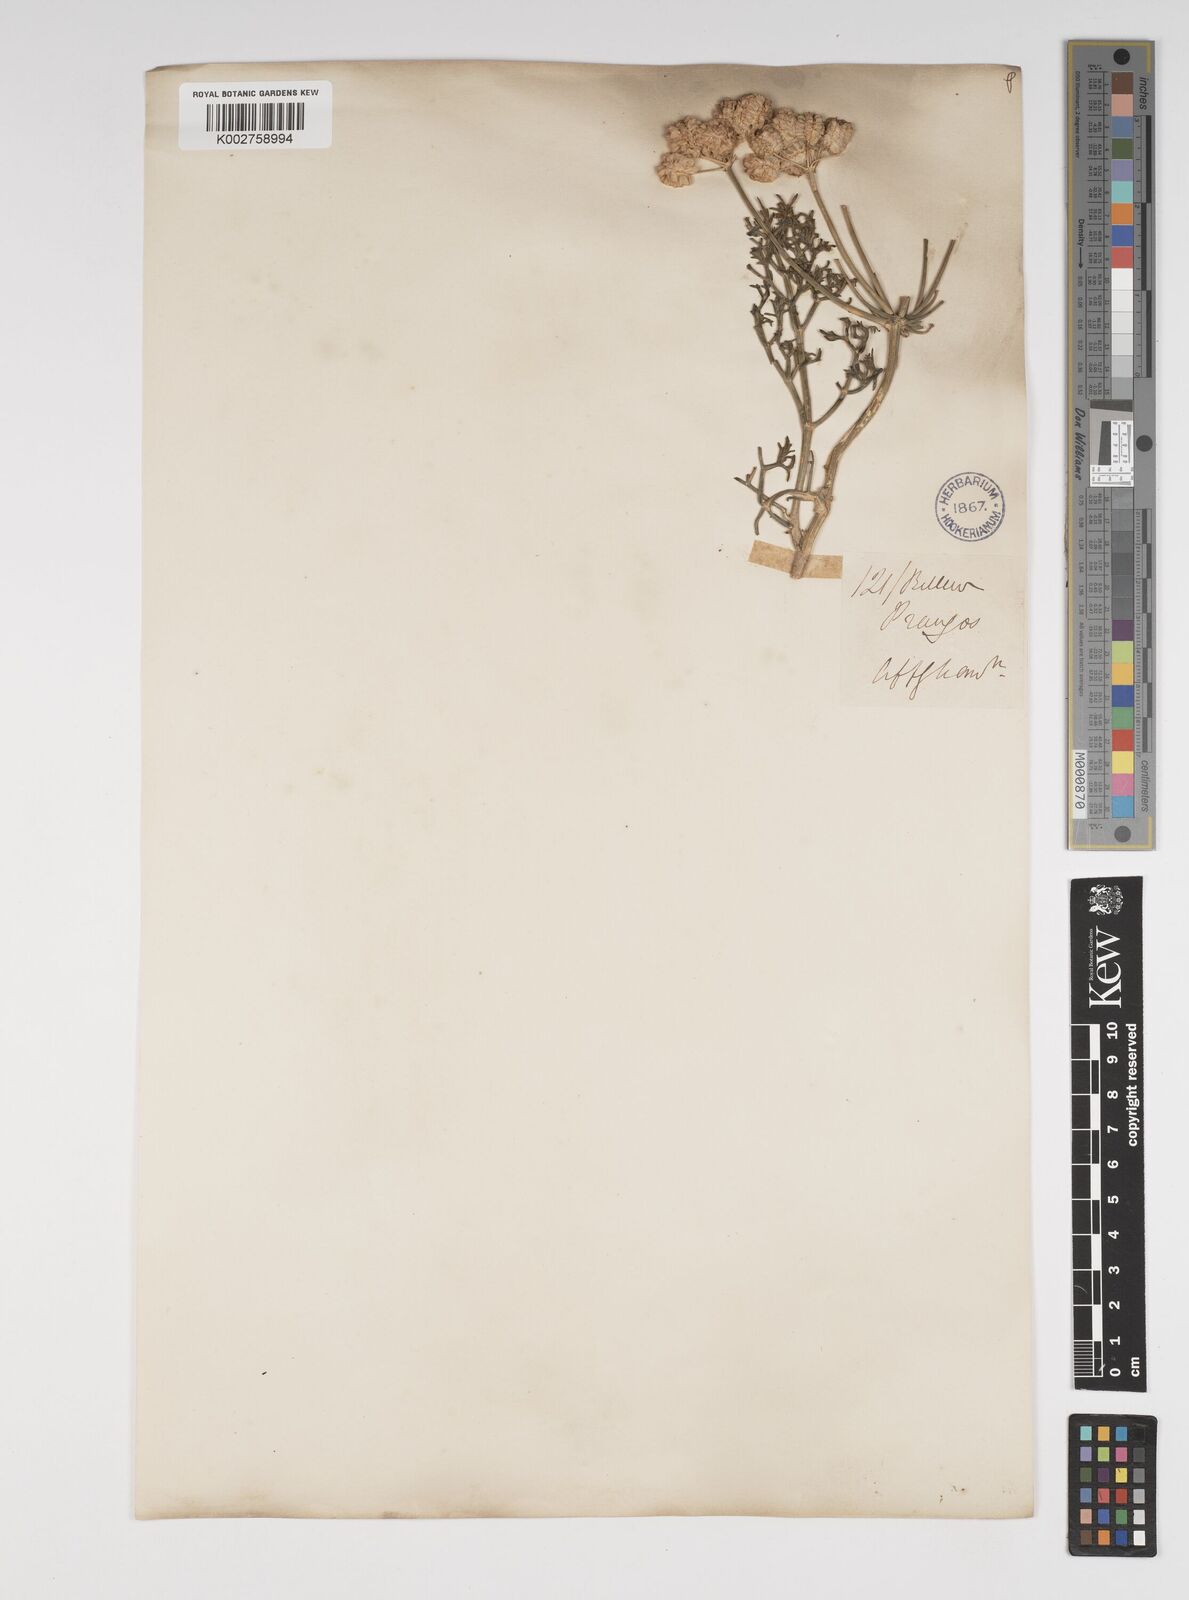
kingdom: Plantae
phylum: Tracheophyta
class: Magnoliopsida
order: Apiales
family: Apiaceae
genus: Prangos
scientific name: Prangos latiloba
